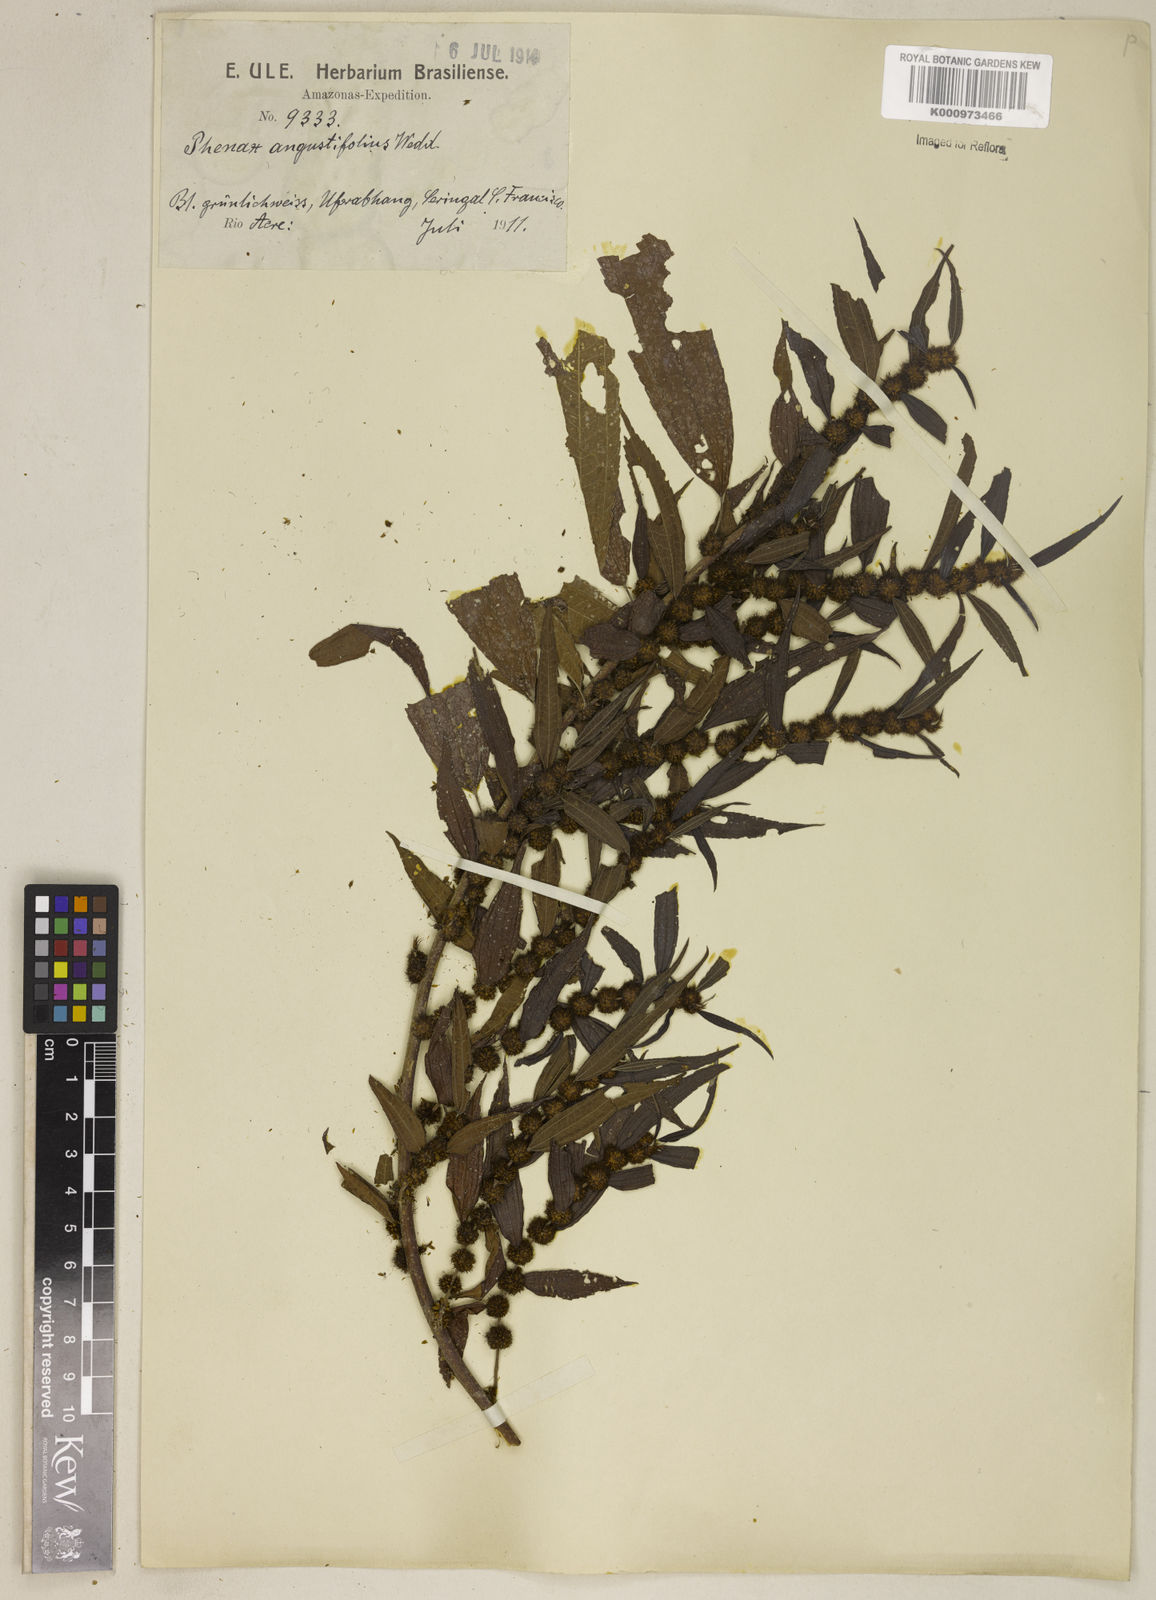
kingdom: Plantae
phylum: Tracheophyta
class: Magnoliopsida
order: Rosales
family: Urticaceae
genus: Phenax
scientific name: Phenax angustifolius
